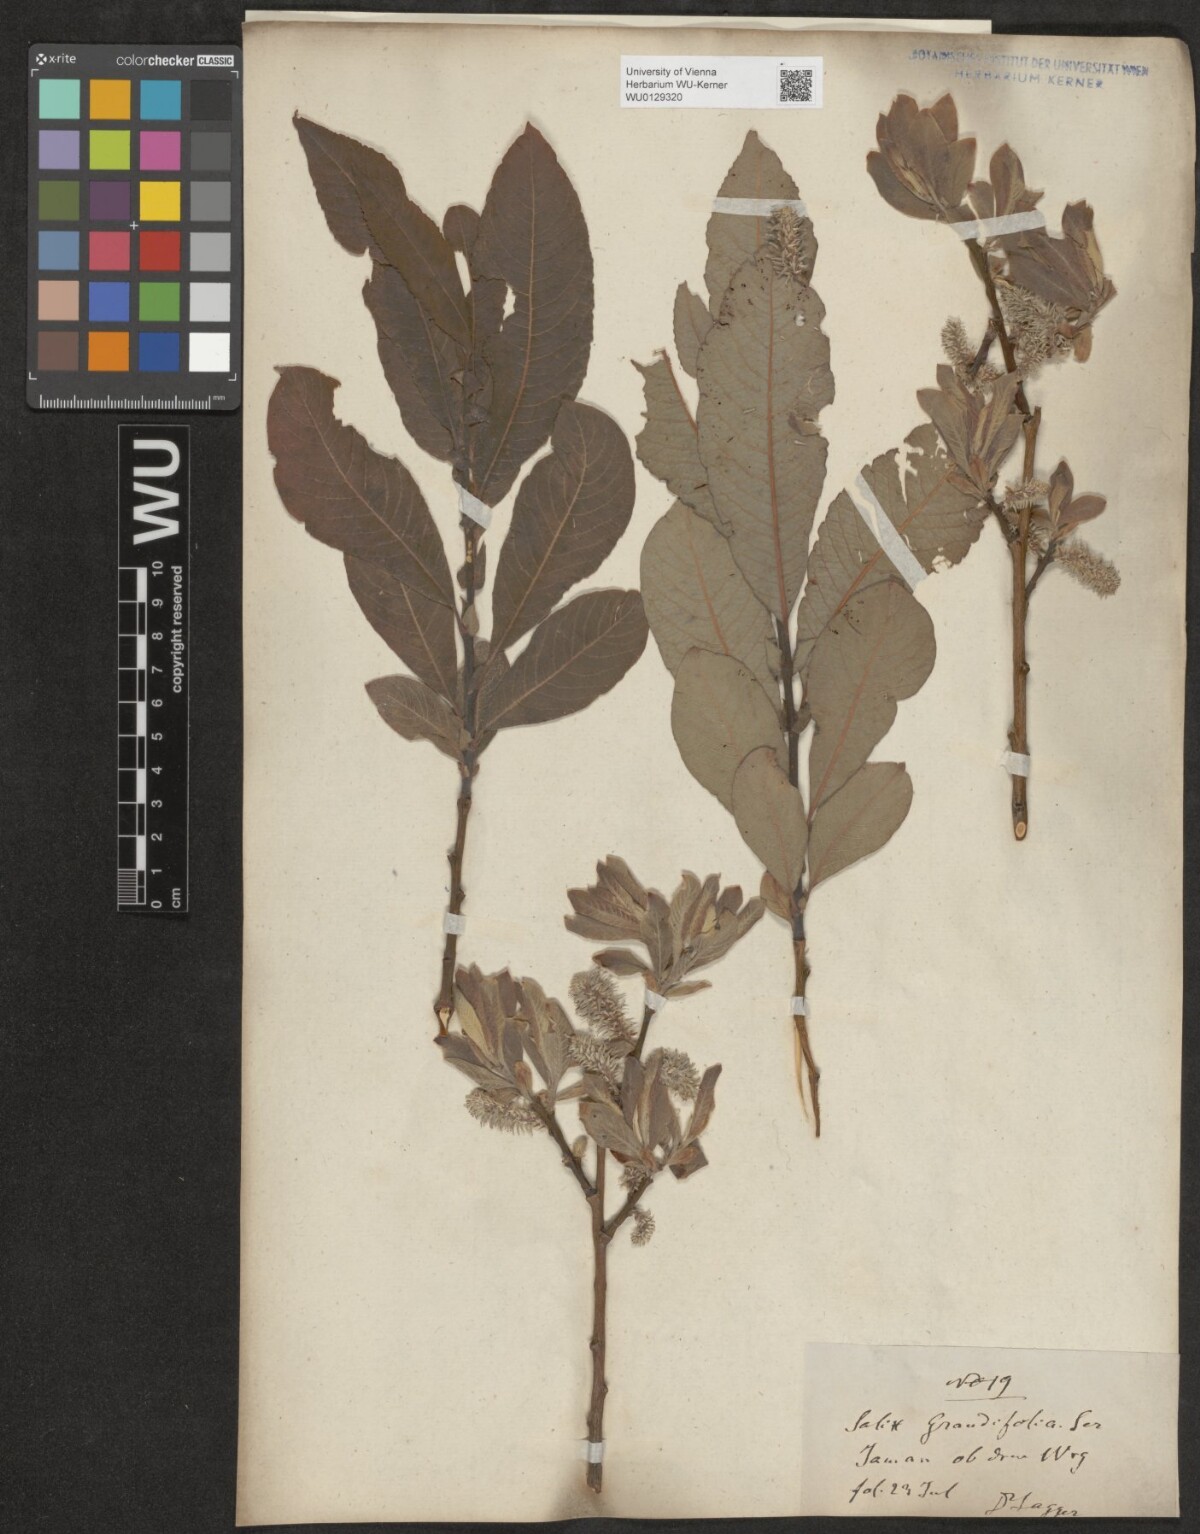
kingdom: Plantae
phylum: Tracheophyta
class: Magnoliopsida
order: Malpighiales
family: Salicaceae
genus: Salix
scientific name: Salix appendiculata
